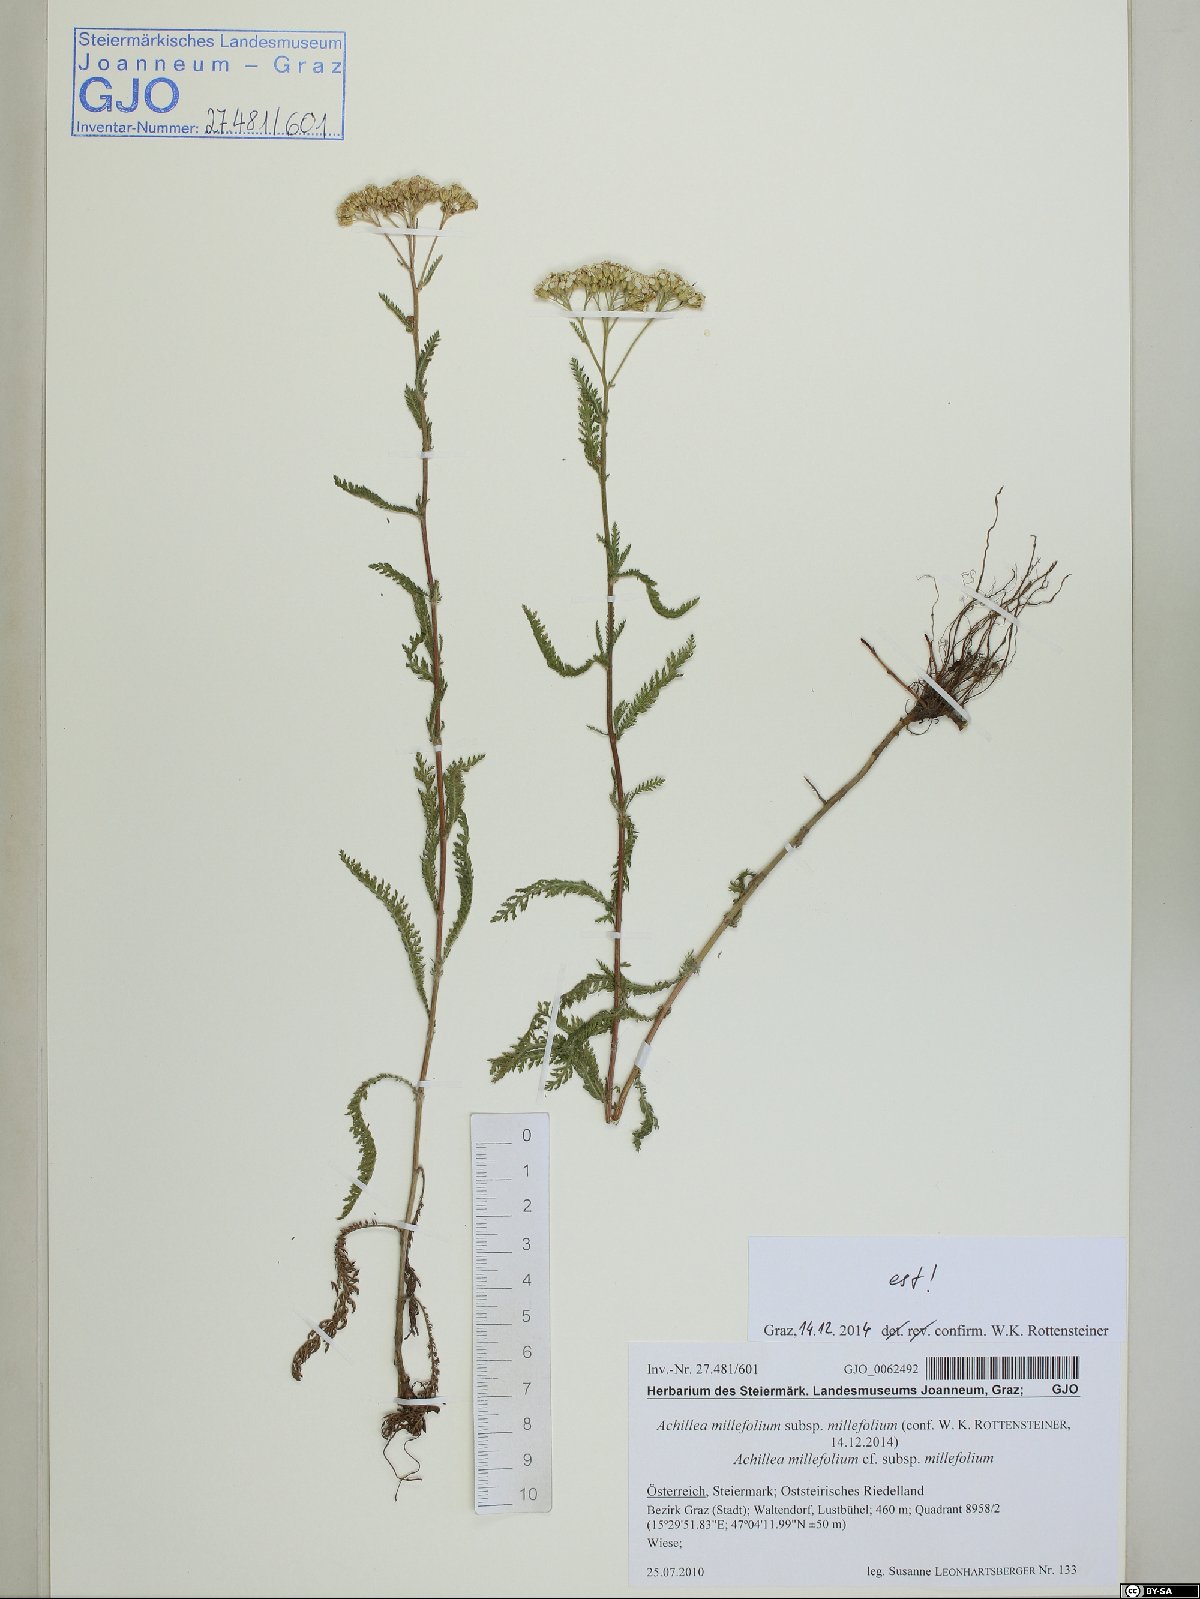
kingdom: Plantae
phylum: Tracheophyta
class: Magnoliopsida
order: Asterales
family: Asteraceae
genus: Achillea
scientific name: Achillea millefolium
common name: Yarrow
